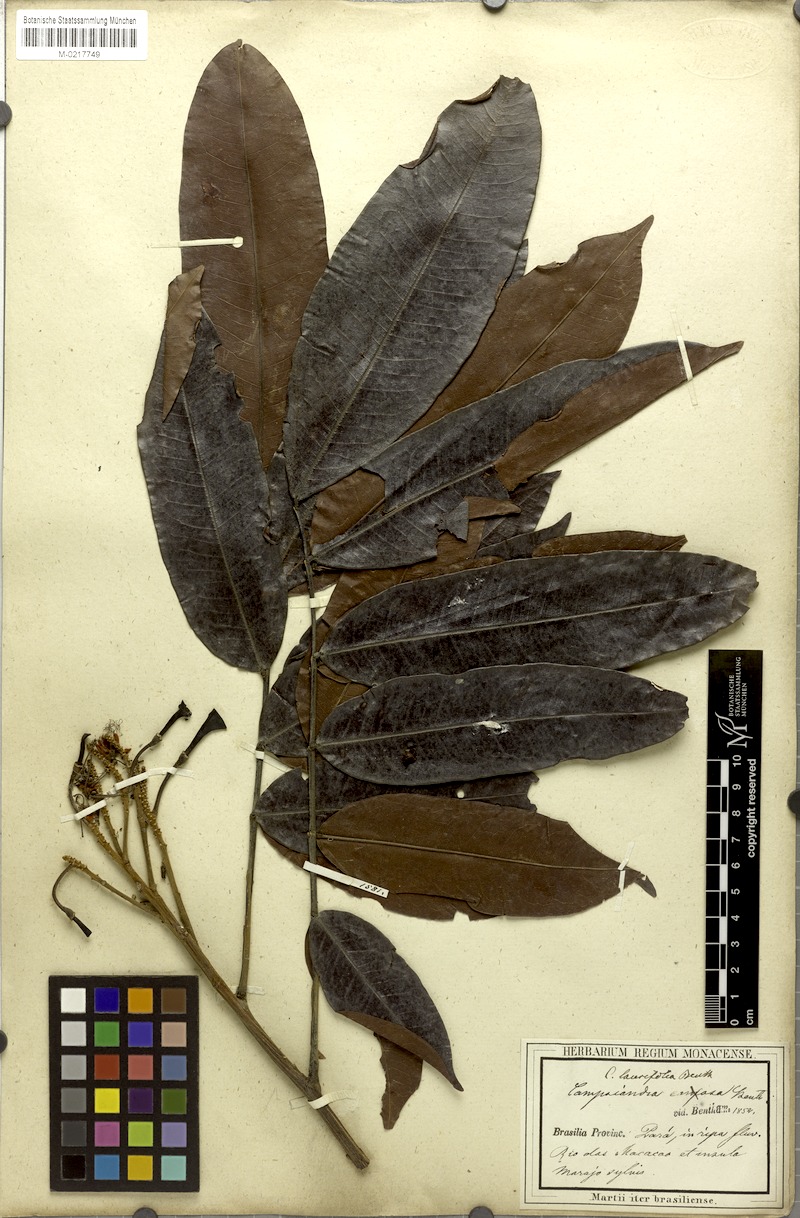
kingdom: Plantae
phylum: Tracheophyta
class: Magnoliopsida
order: Fabales
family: Fabaceae
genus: Campsiandra
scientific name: Campsiandra laurifolia
